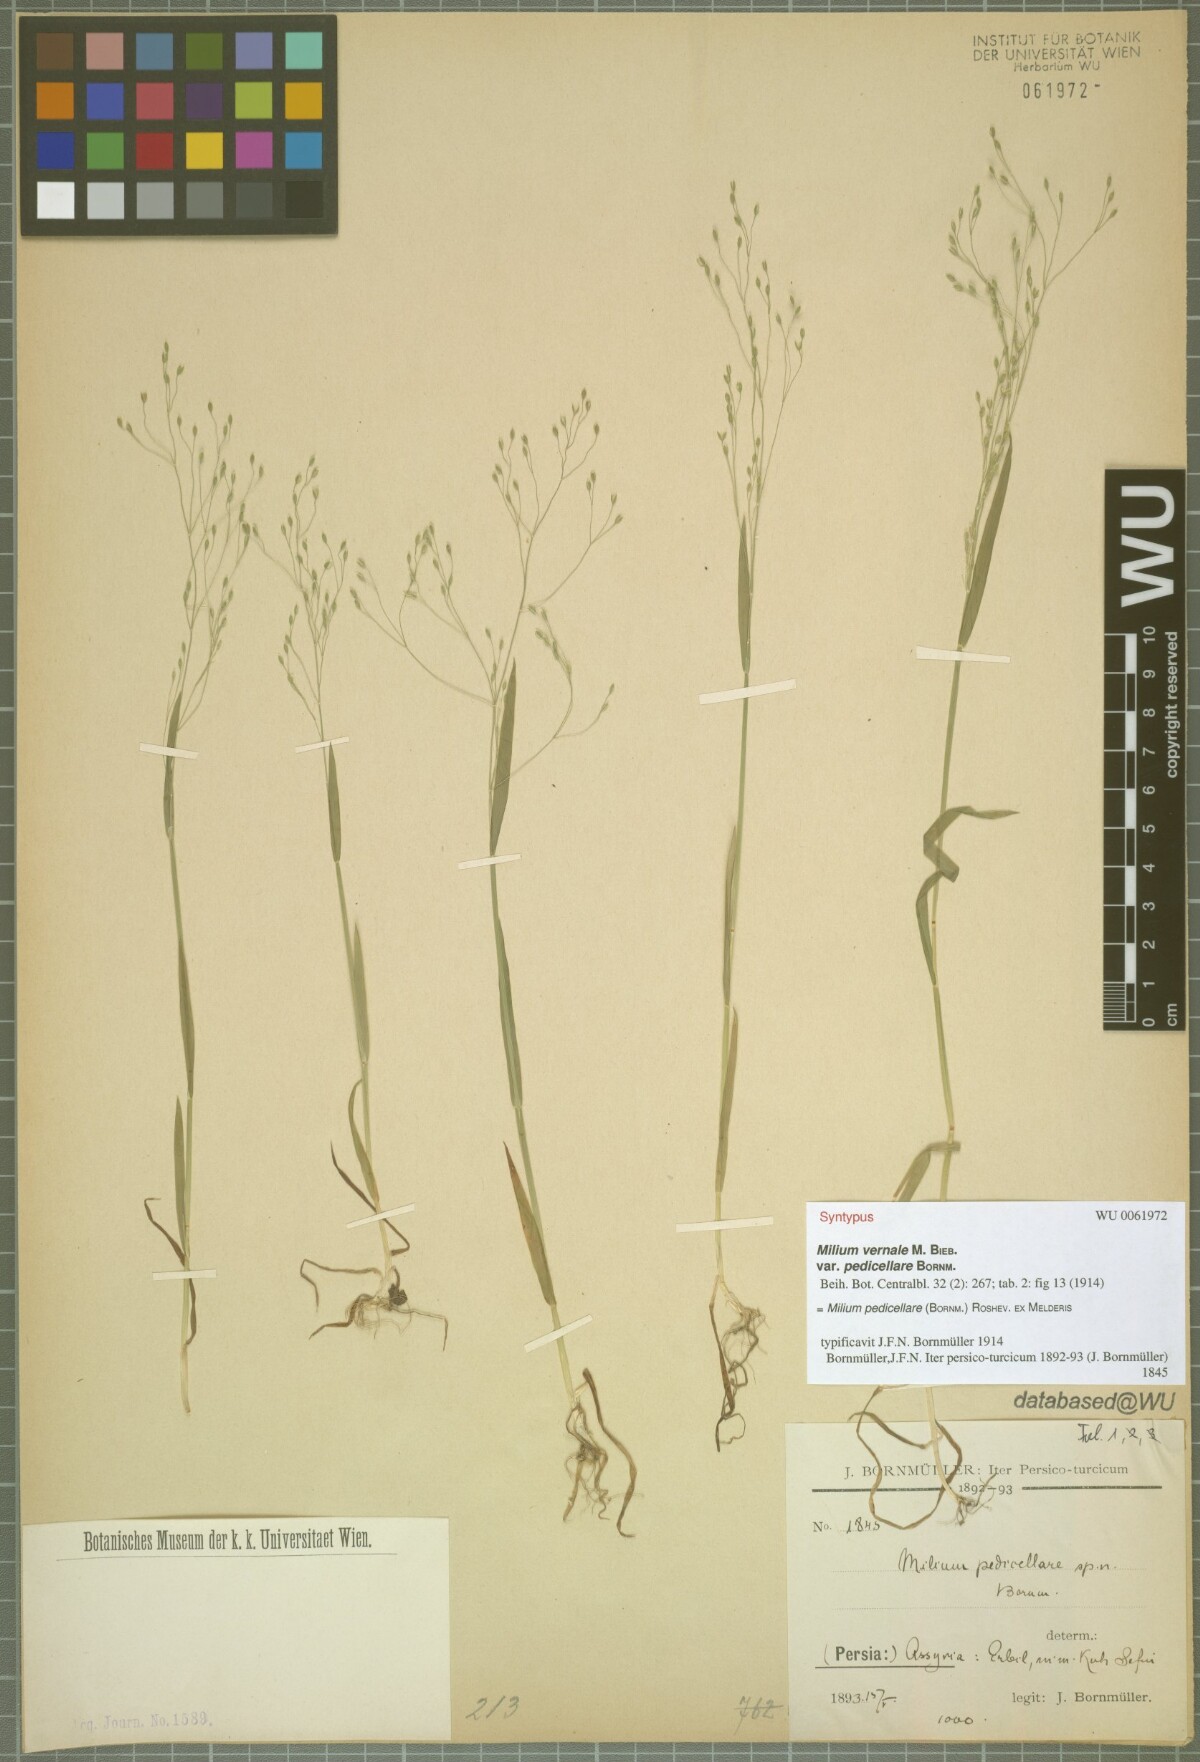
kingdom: Plantae
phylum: Tracheophyta
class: Liliopsida
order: Poales
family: Poaceae
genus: Milium
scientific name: Milium pedicellare
